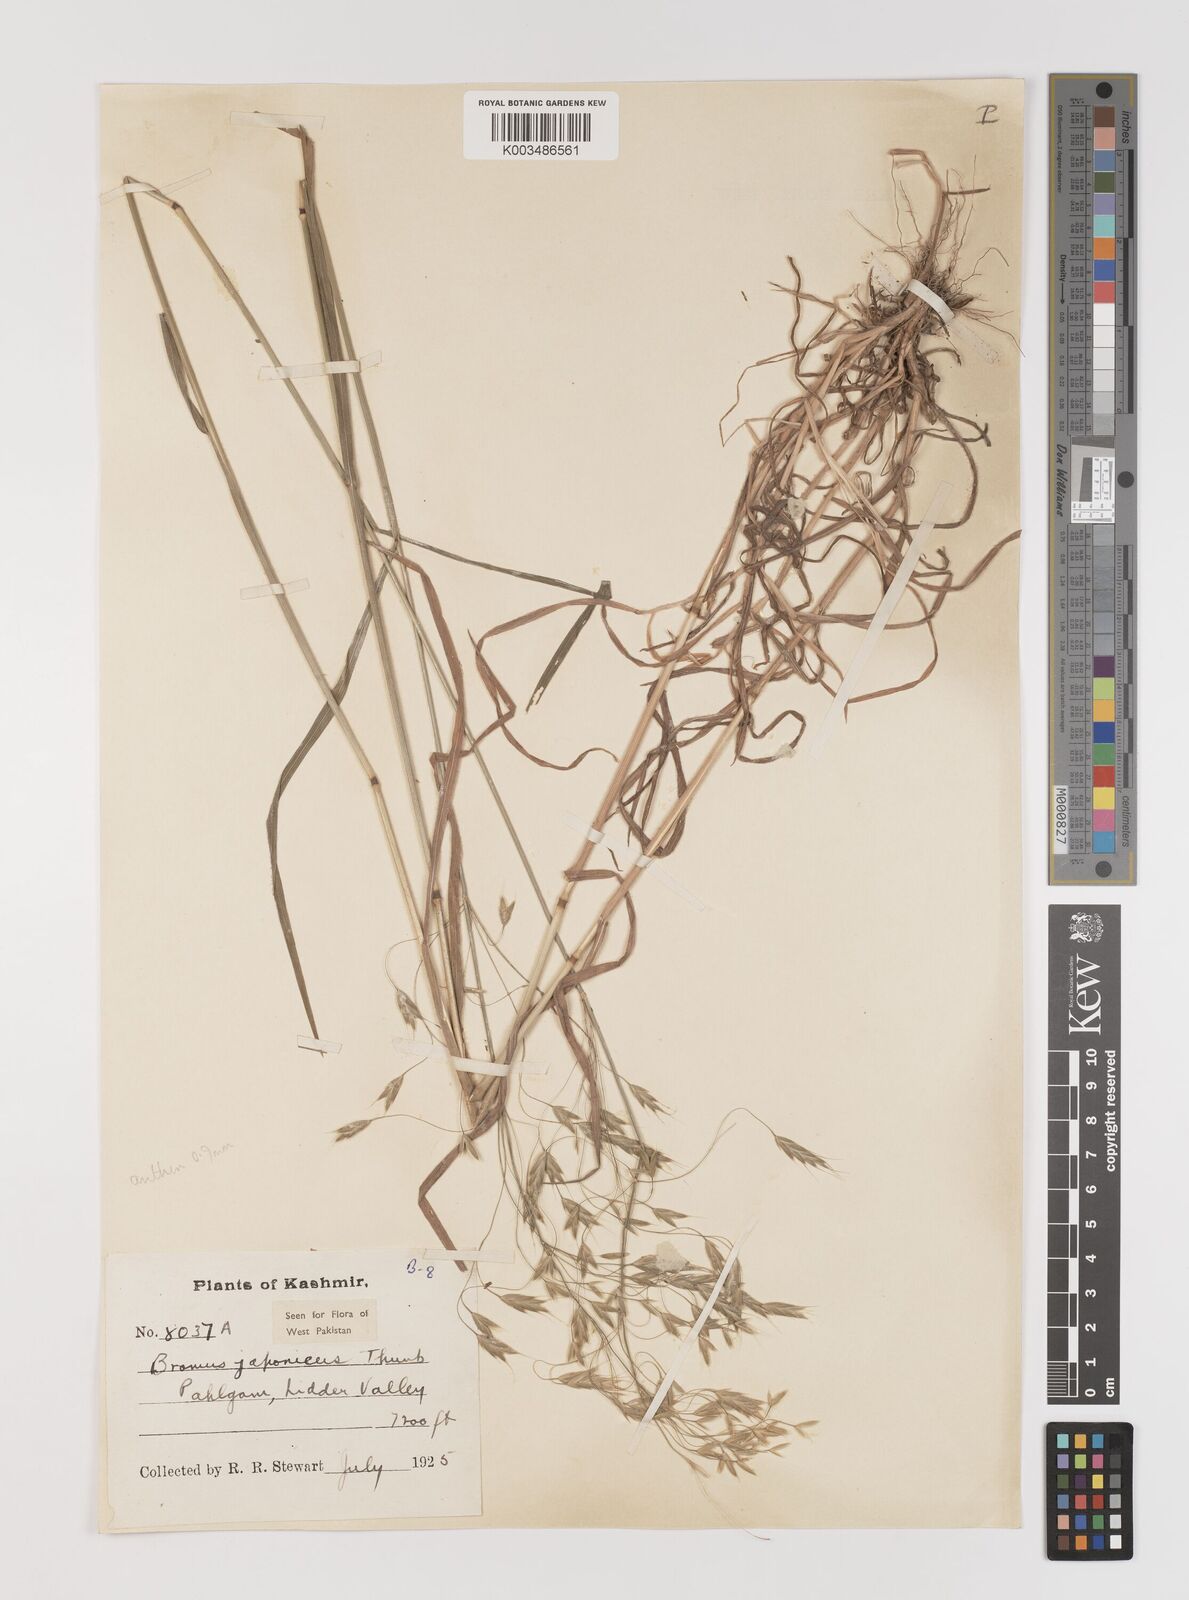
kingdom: Plantae
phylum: Tracheophyta
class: Liliopsida
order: Poales
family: Poaceae
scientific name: Poaceae
